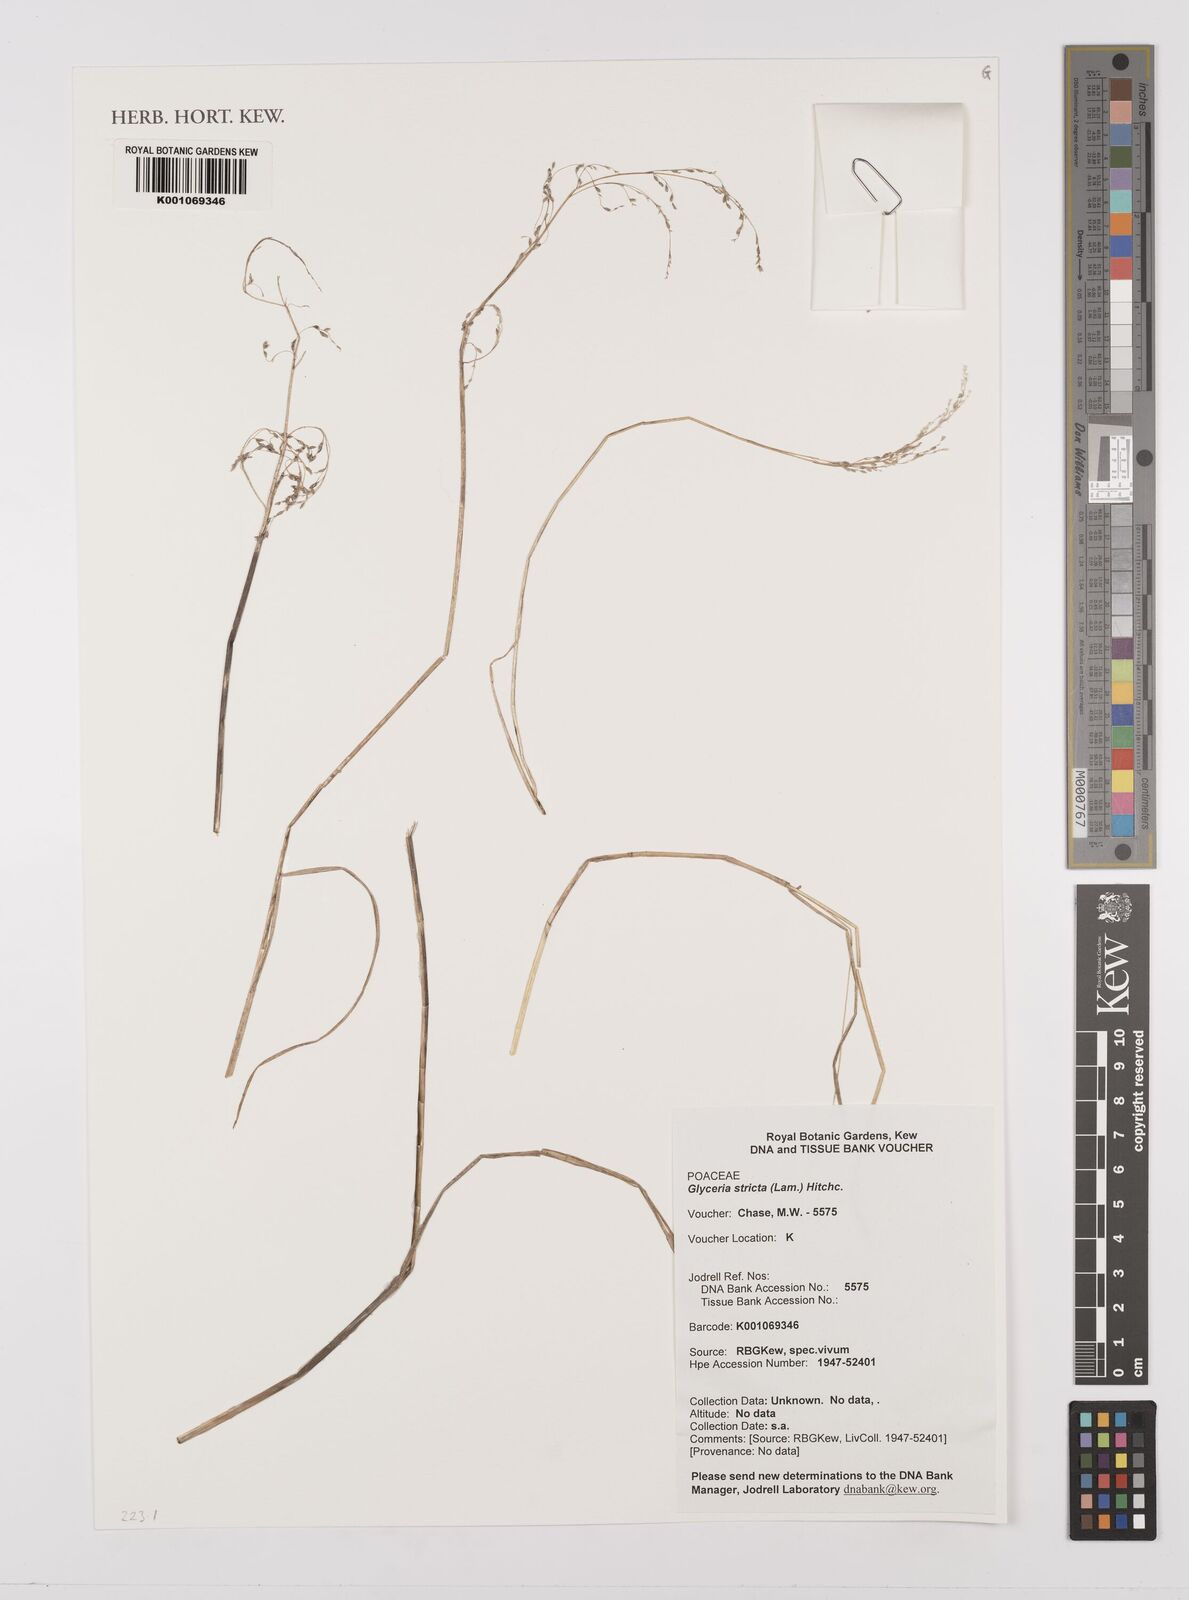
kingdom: Plantae
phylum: Tracheophyta
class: Liliopsida
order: Poales
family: Poaceae
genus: Glyceria
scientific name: Glyceria striata
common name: Fowl manna grass
